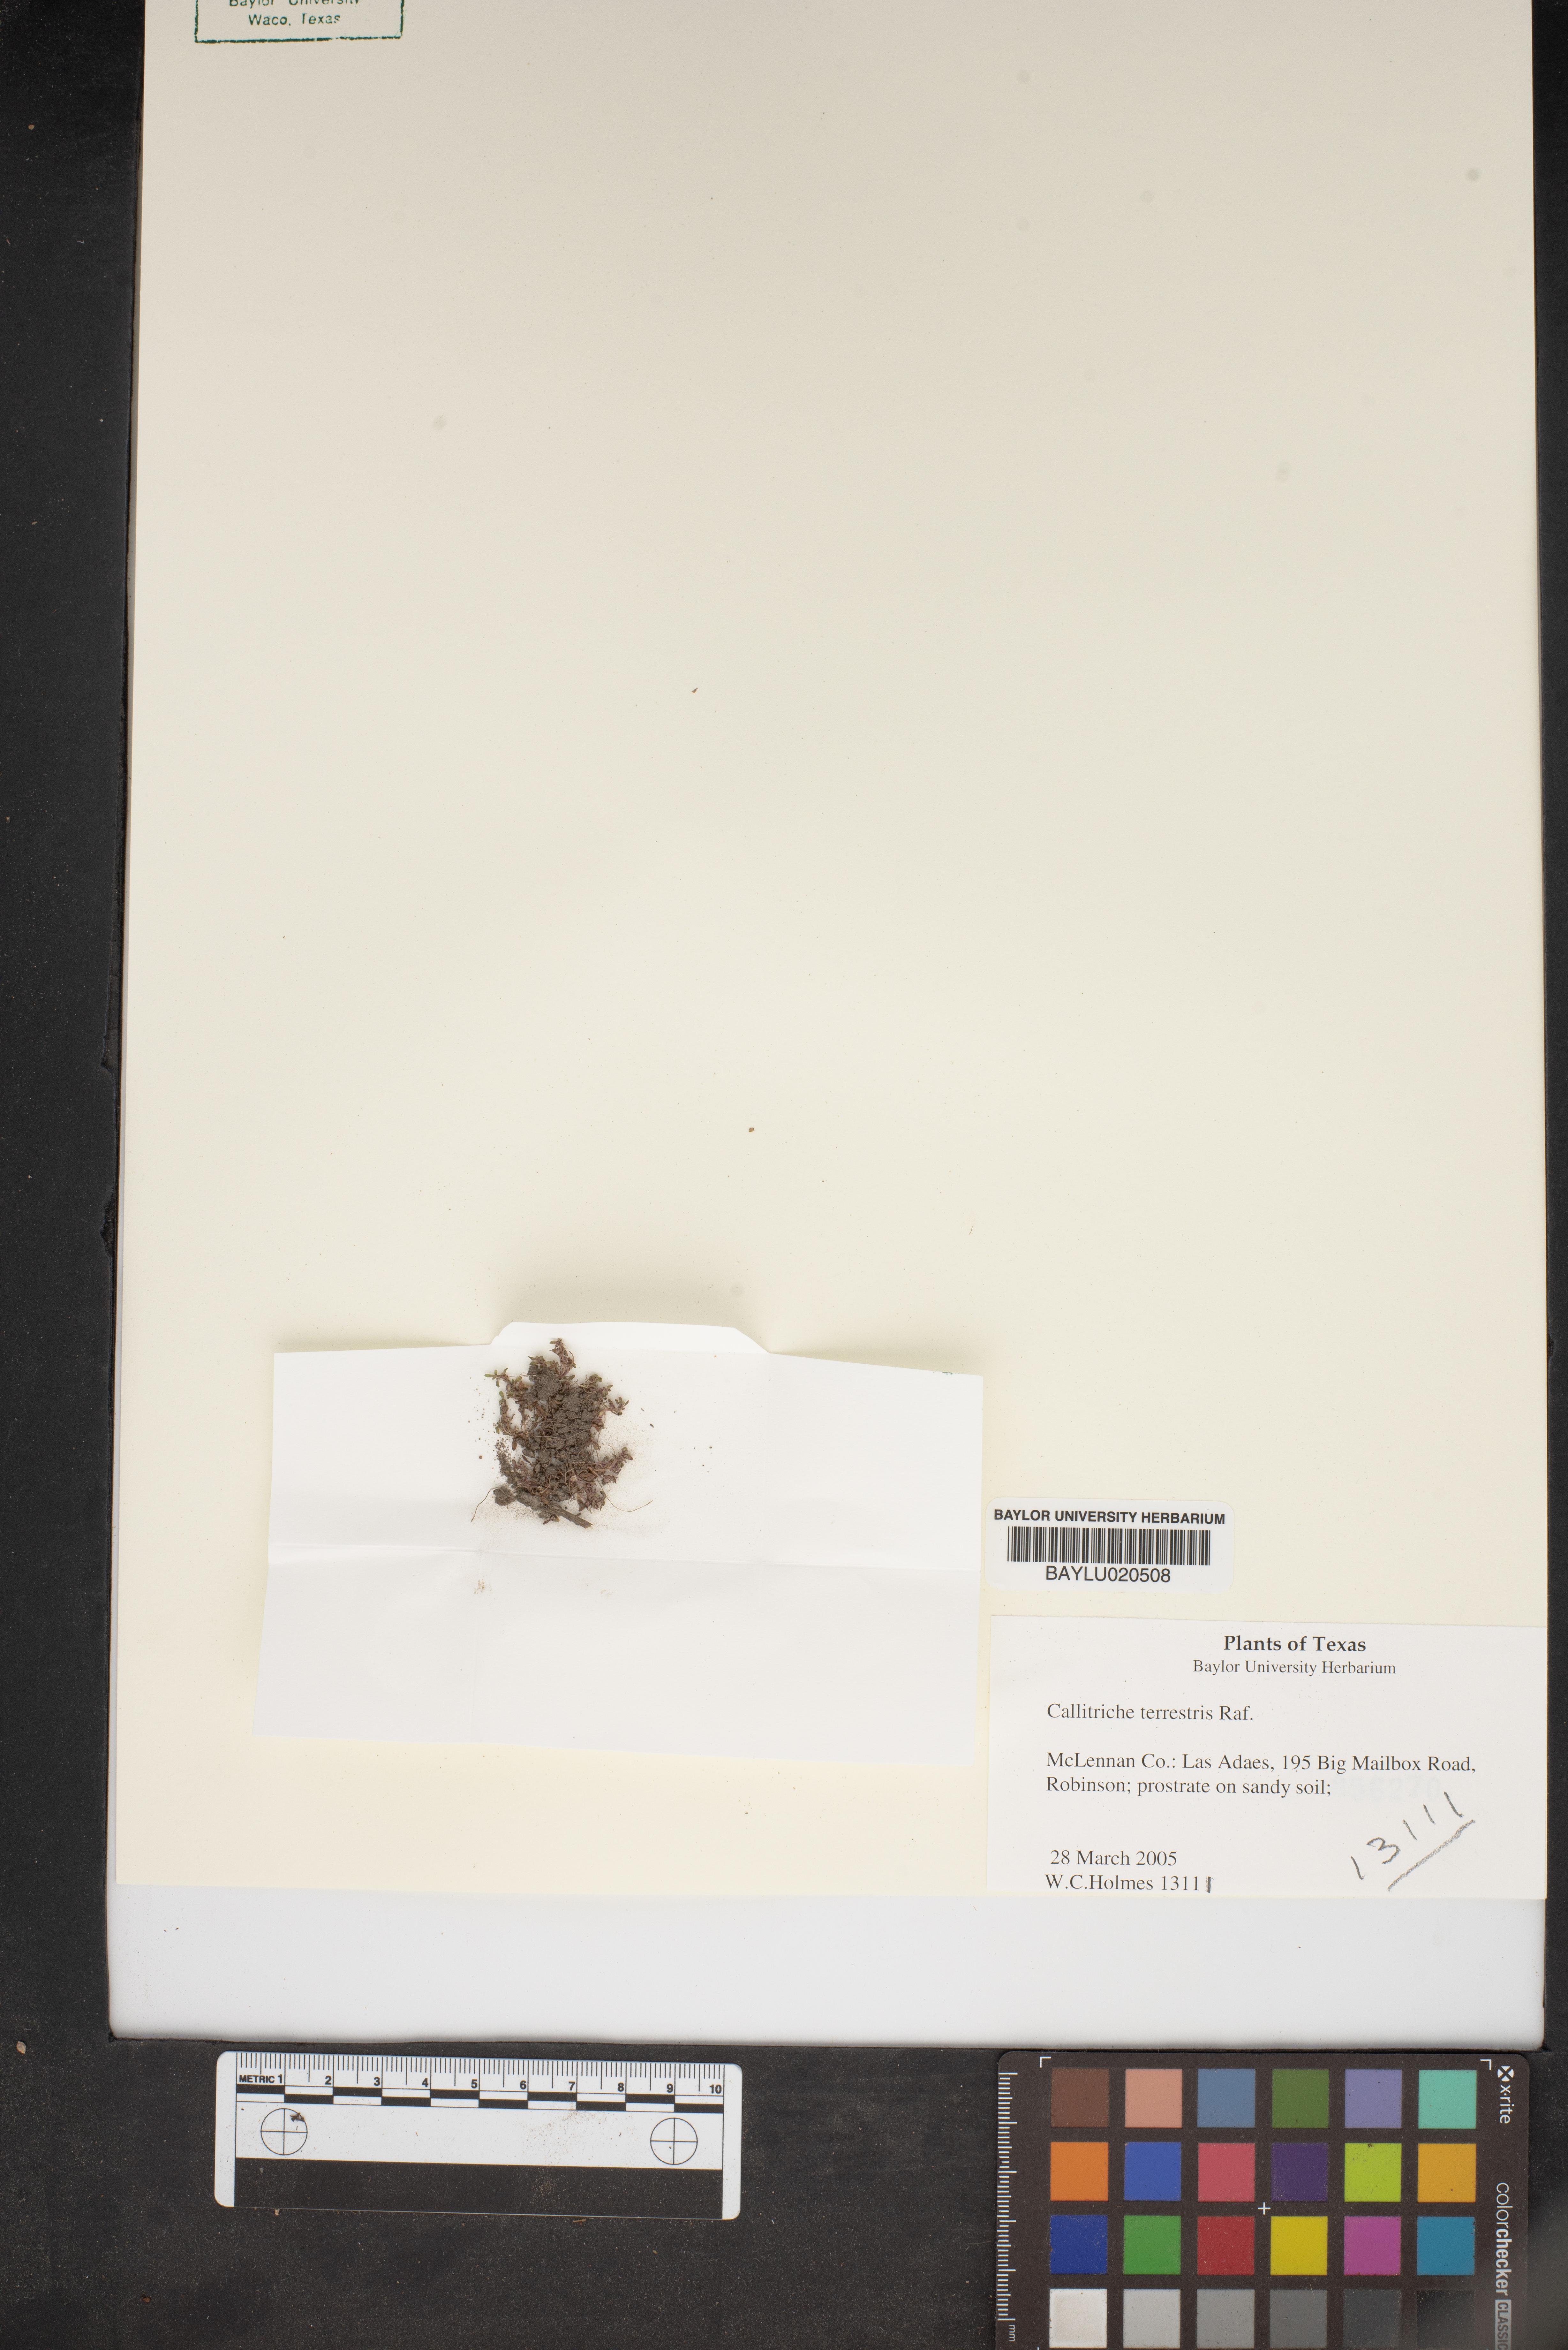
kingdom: Plantae
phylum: Tracheophyta
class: Magnoliopsida
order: Lamiales
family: Plantaginaceae
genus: Callitriche
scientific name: Callitriche terrestris
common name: Terrestrial water-starwort
